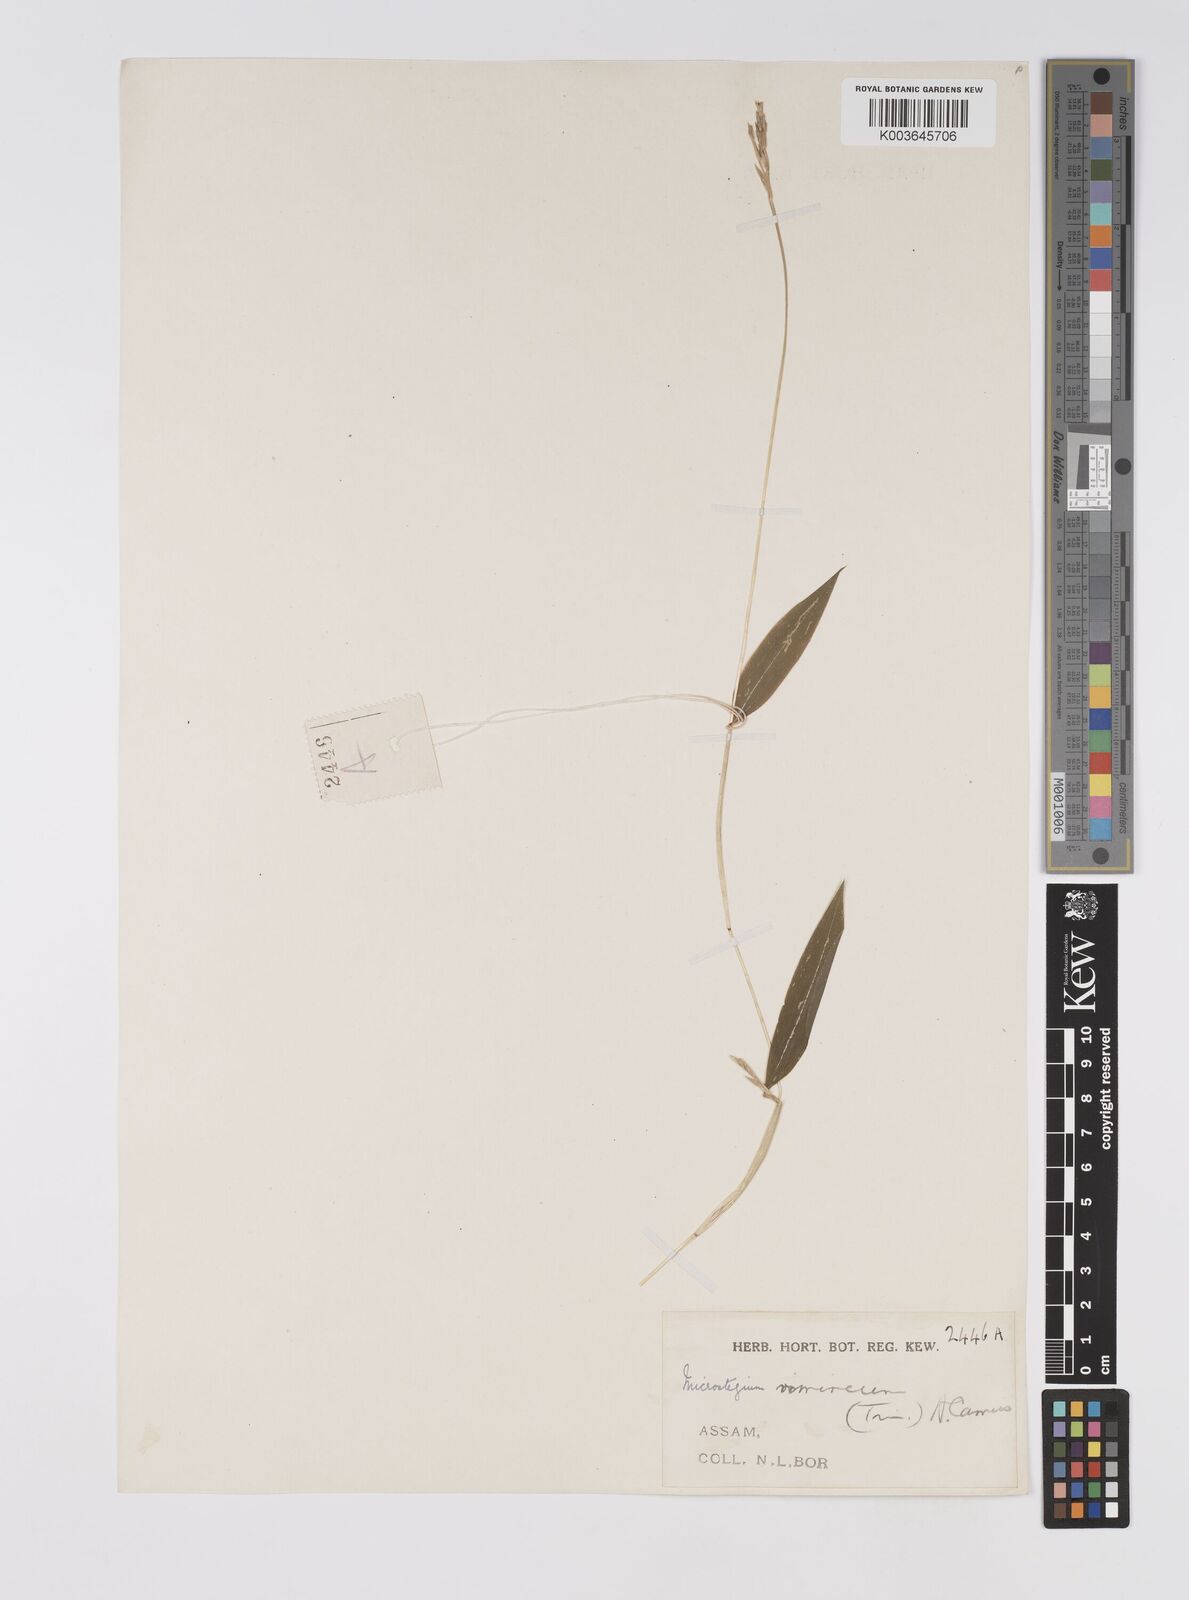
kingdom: Plantae
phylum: Tracheophyta
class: Liliopsida
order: Poales
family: Poaceae
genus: Microstegium
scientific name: Microstegium vimineum
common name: Japanese stiltgrass
